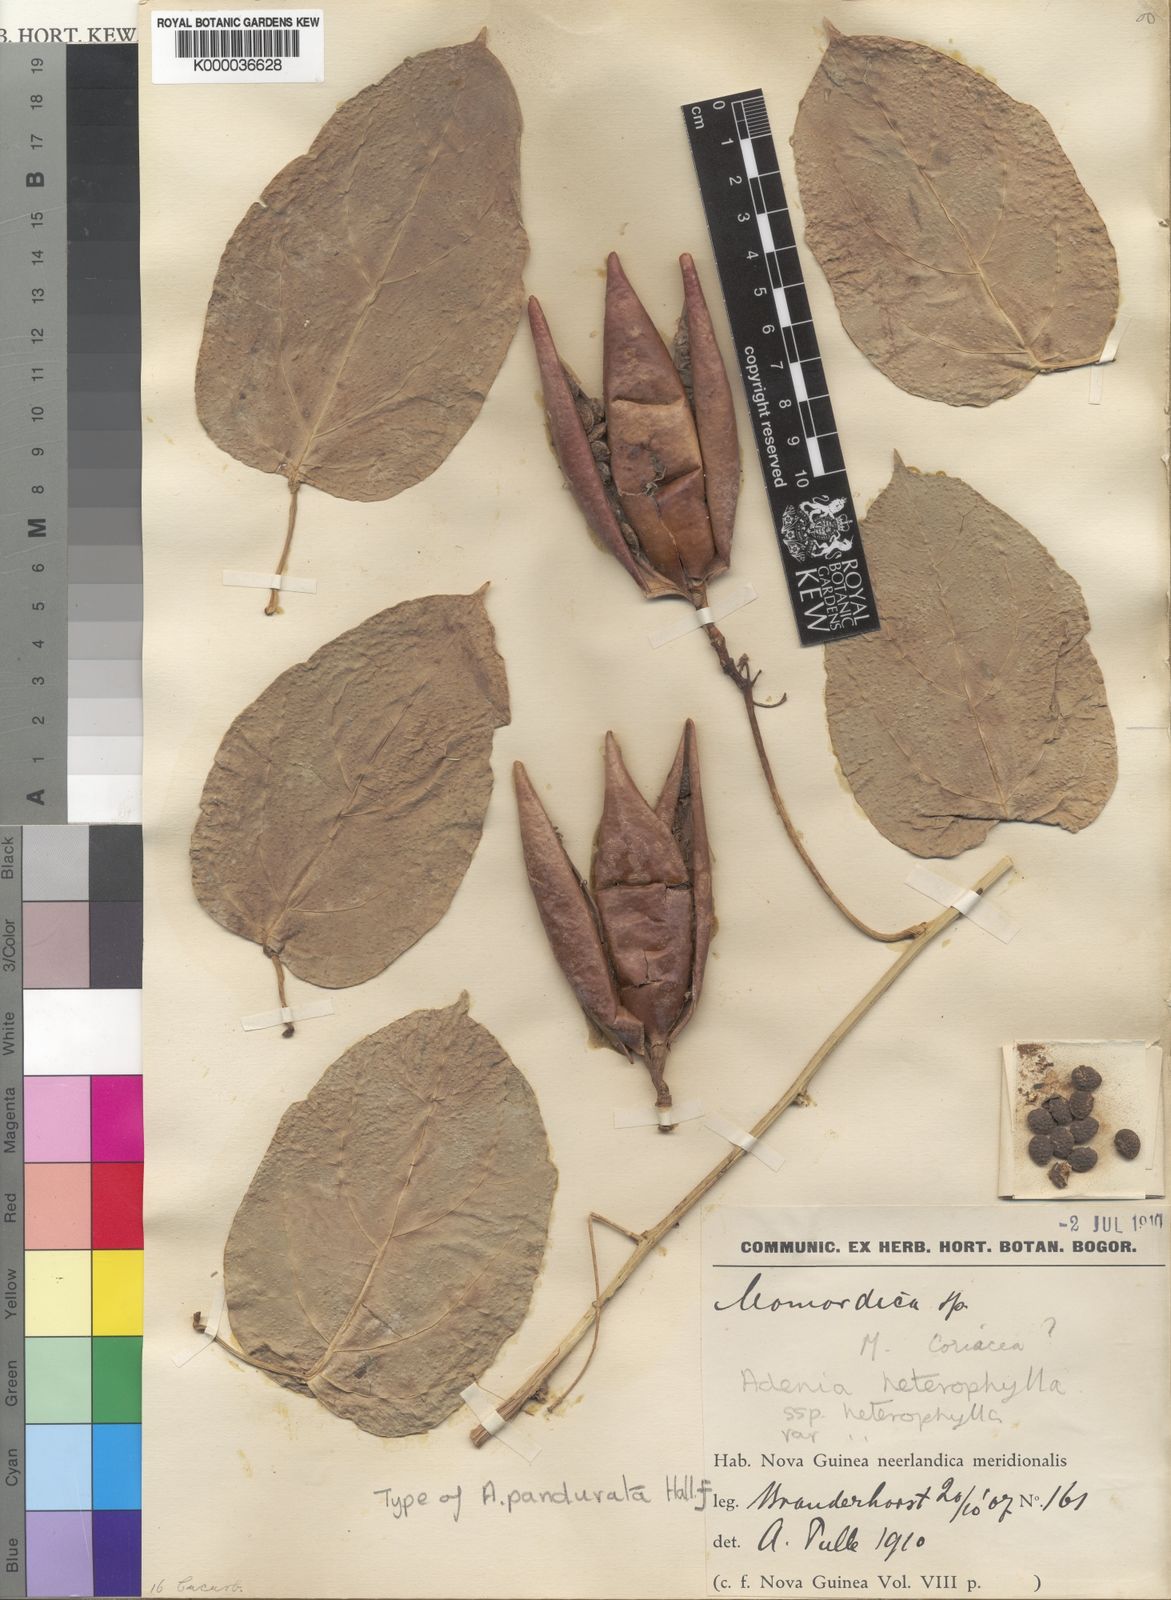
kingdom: Plantae
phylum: Tracheophyta
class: Magnoliopsida
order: Malpighiales
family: Passifloraceae
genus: Adenia
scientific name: Adenia
